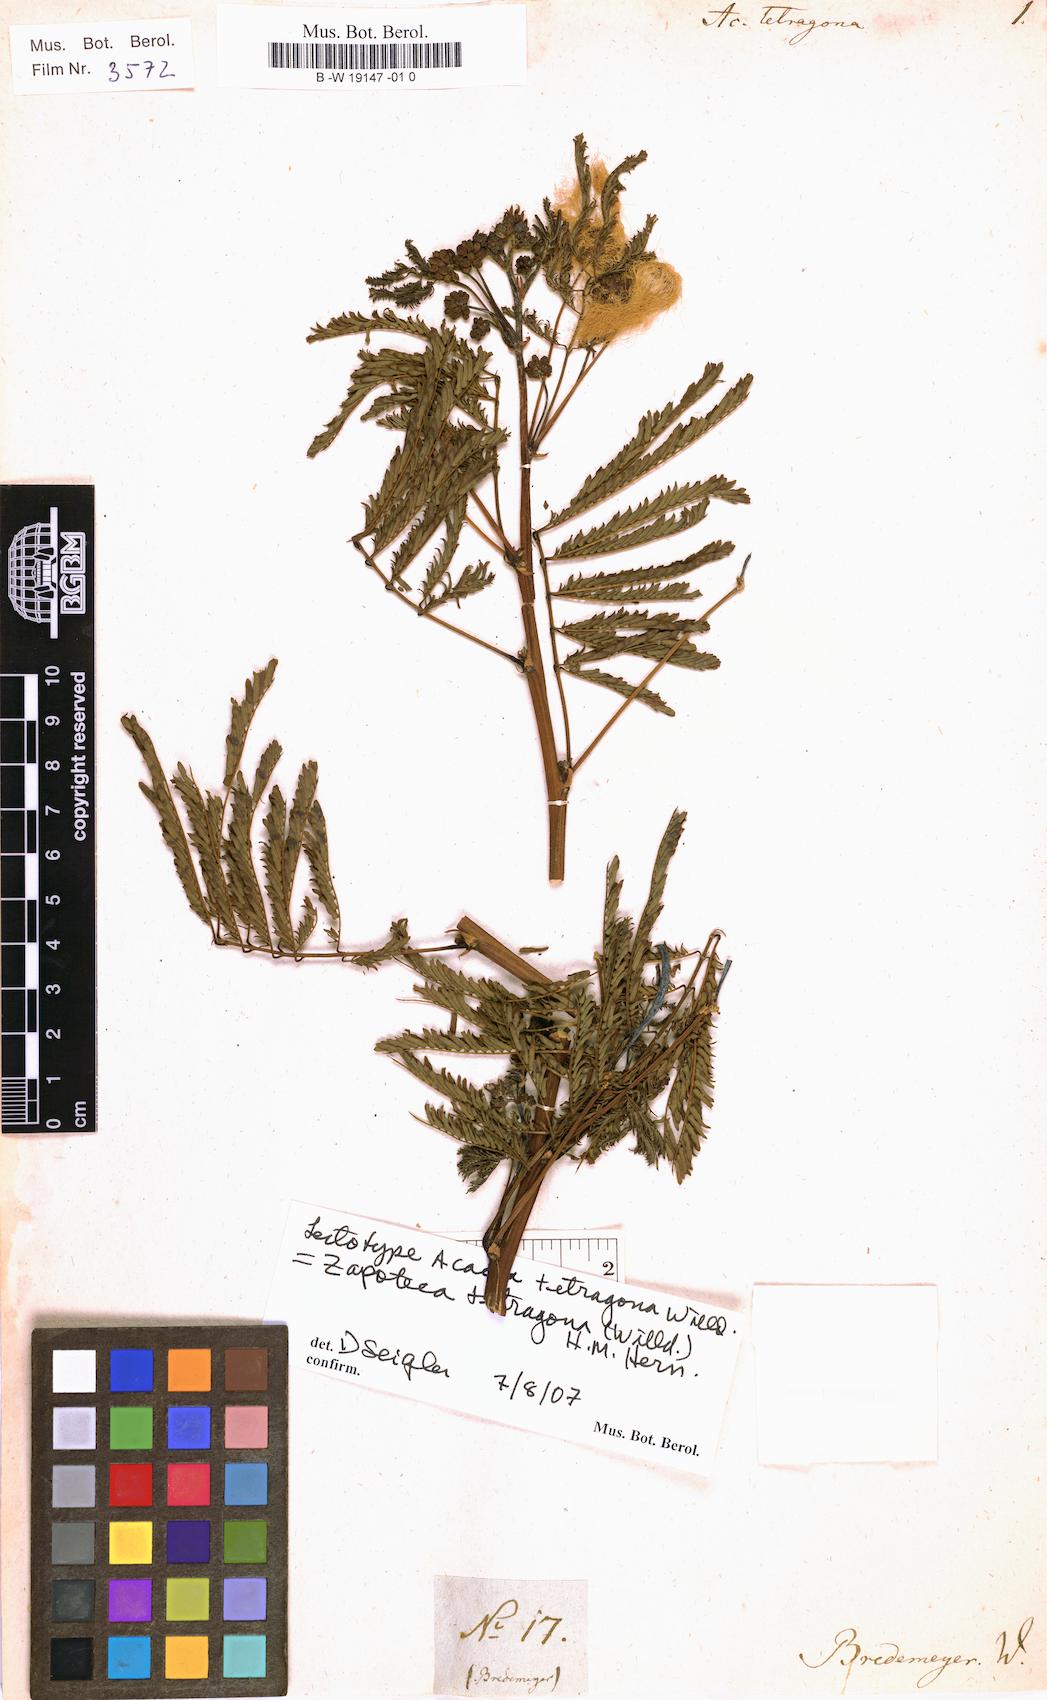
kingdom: Plantae
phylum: Tracheophyta
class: Magnoliopsida
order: Fabales
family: Fabaceae
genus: Zapoteca
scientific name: Zapoteca tetragona
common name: White calliandra
